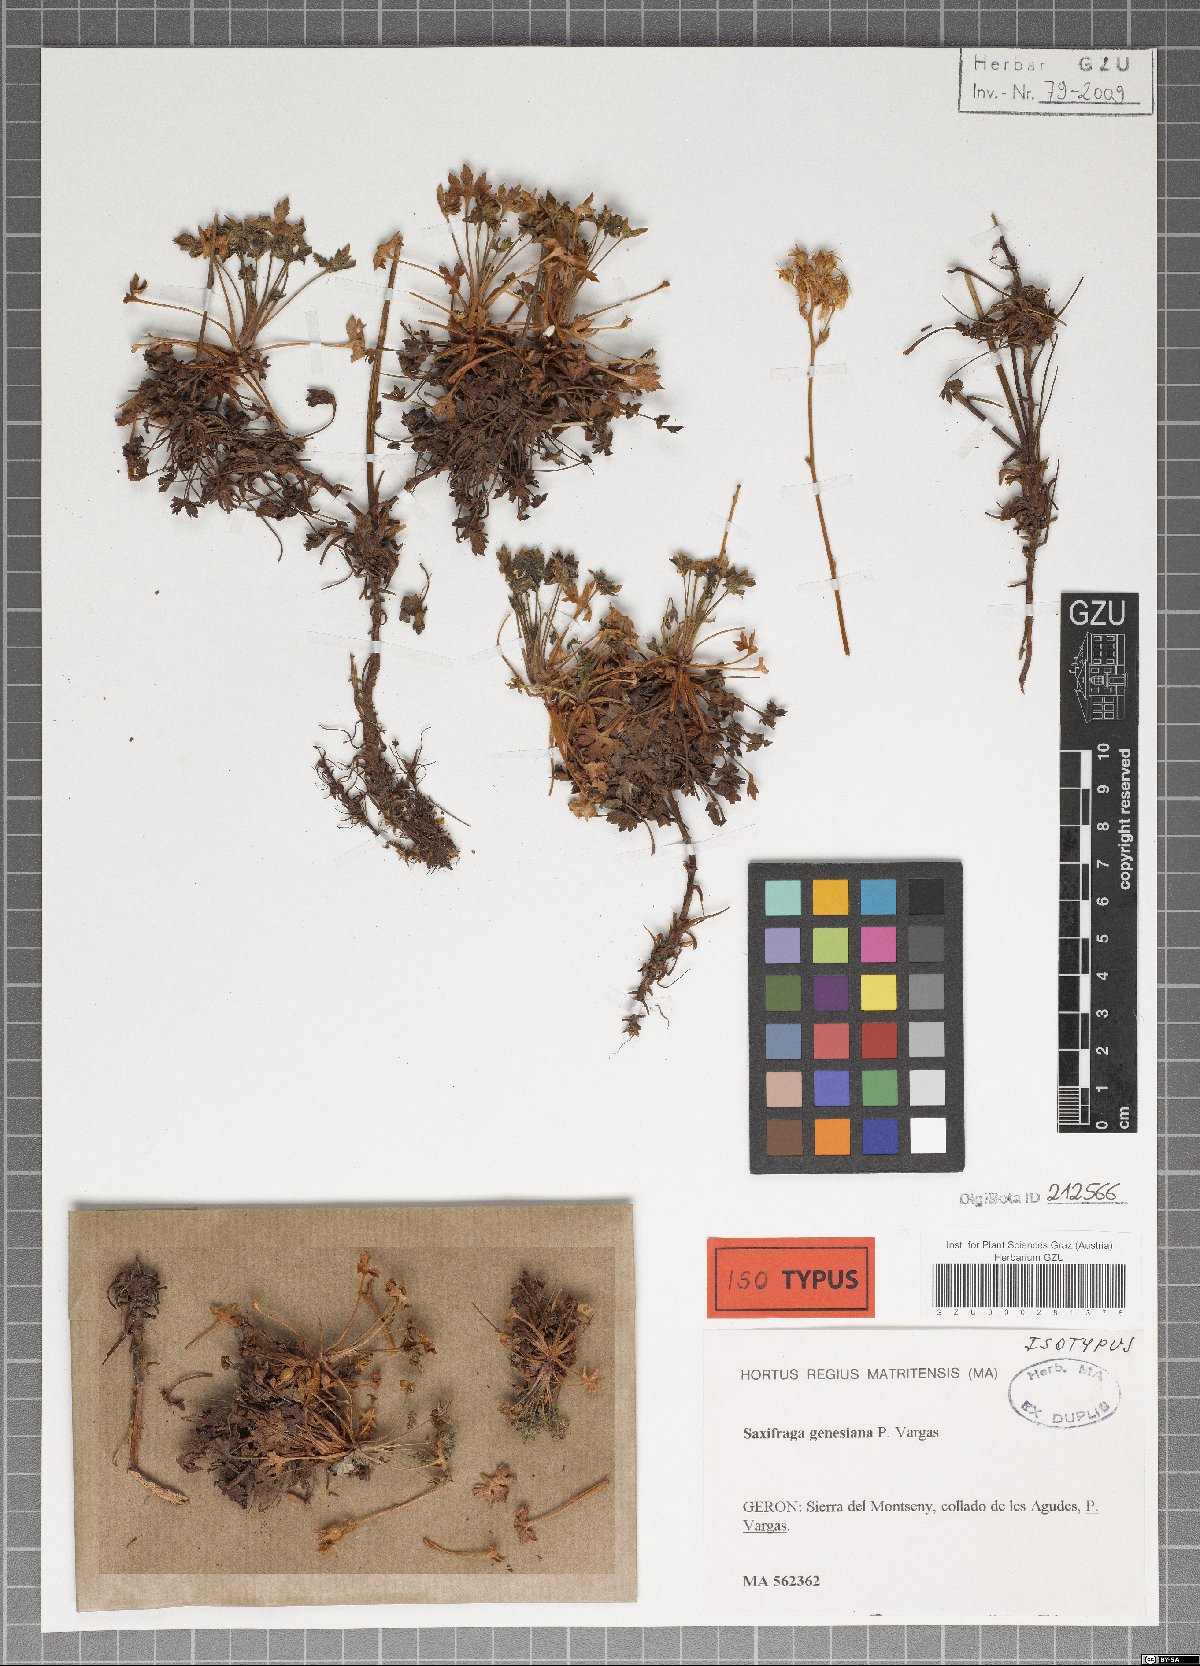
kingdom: Plantae
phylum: Tracheophyta
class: Magnoliopsida
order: Saxifragales
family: Saxifragaceae
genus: Saxifraga
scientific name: Saxifraga genesiana
